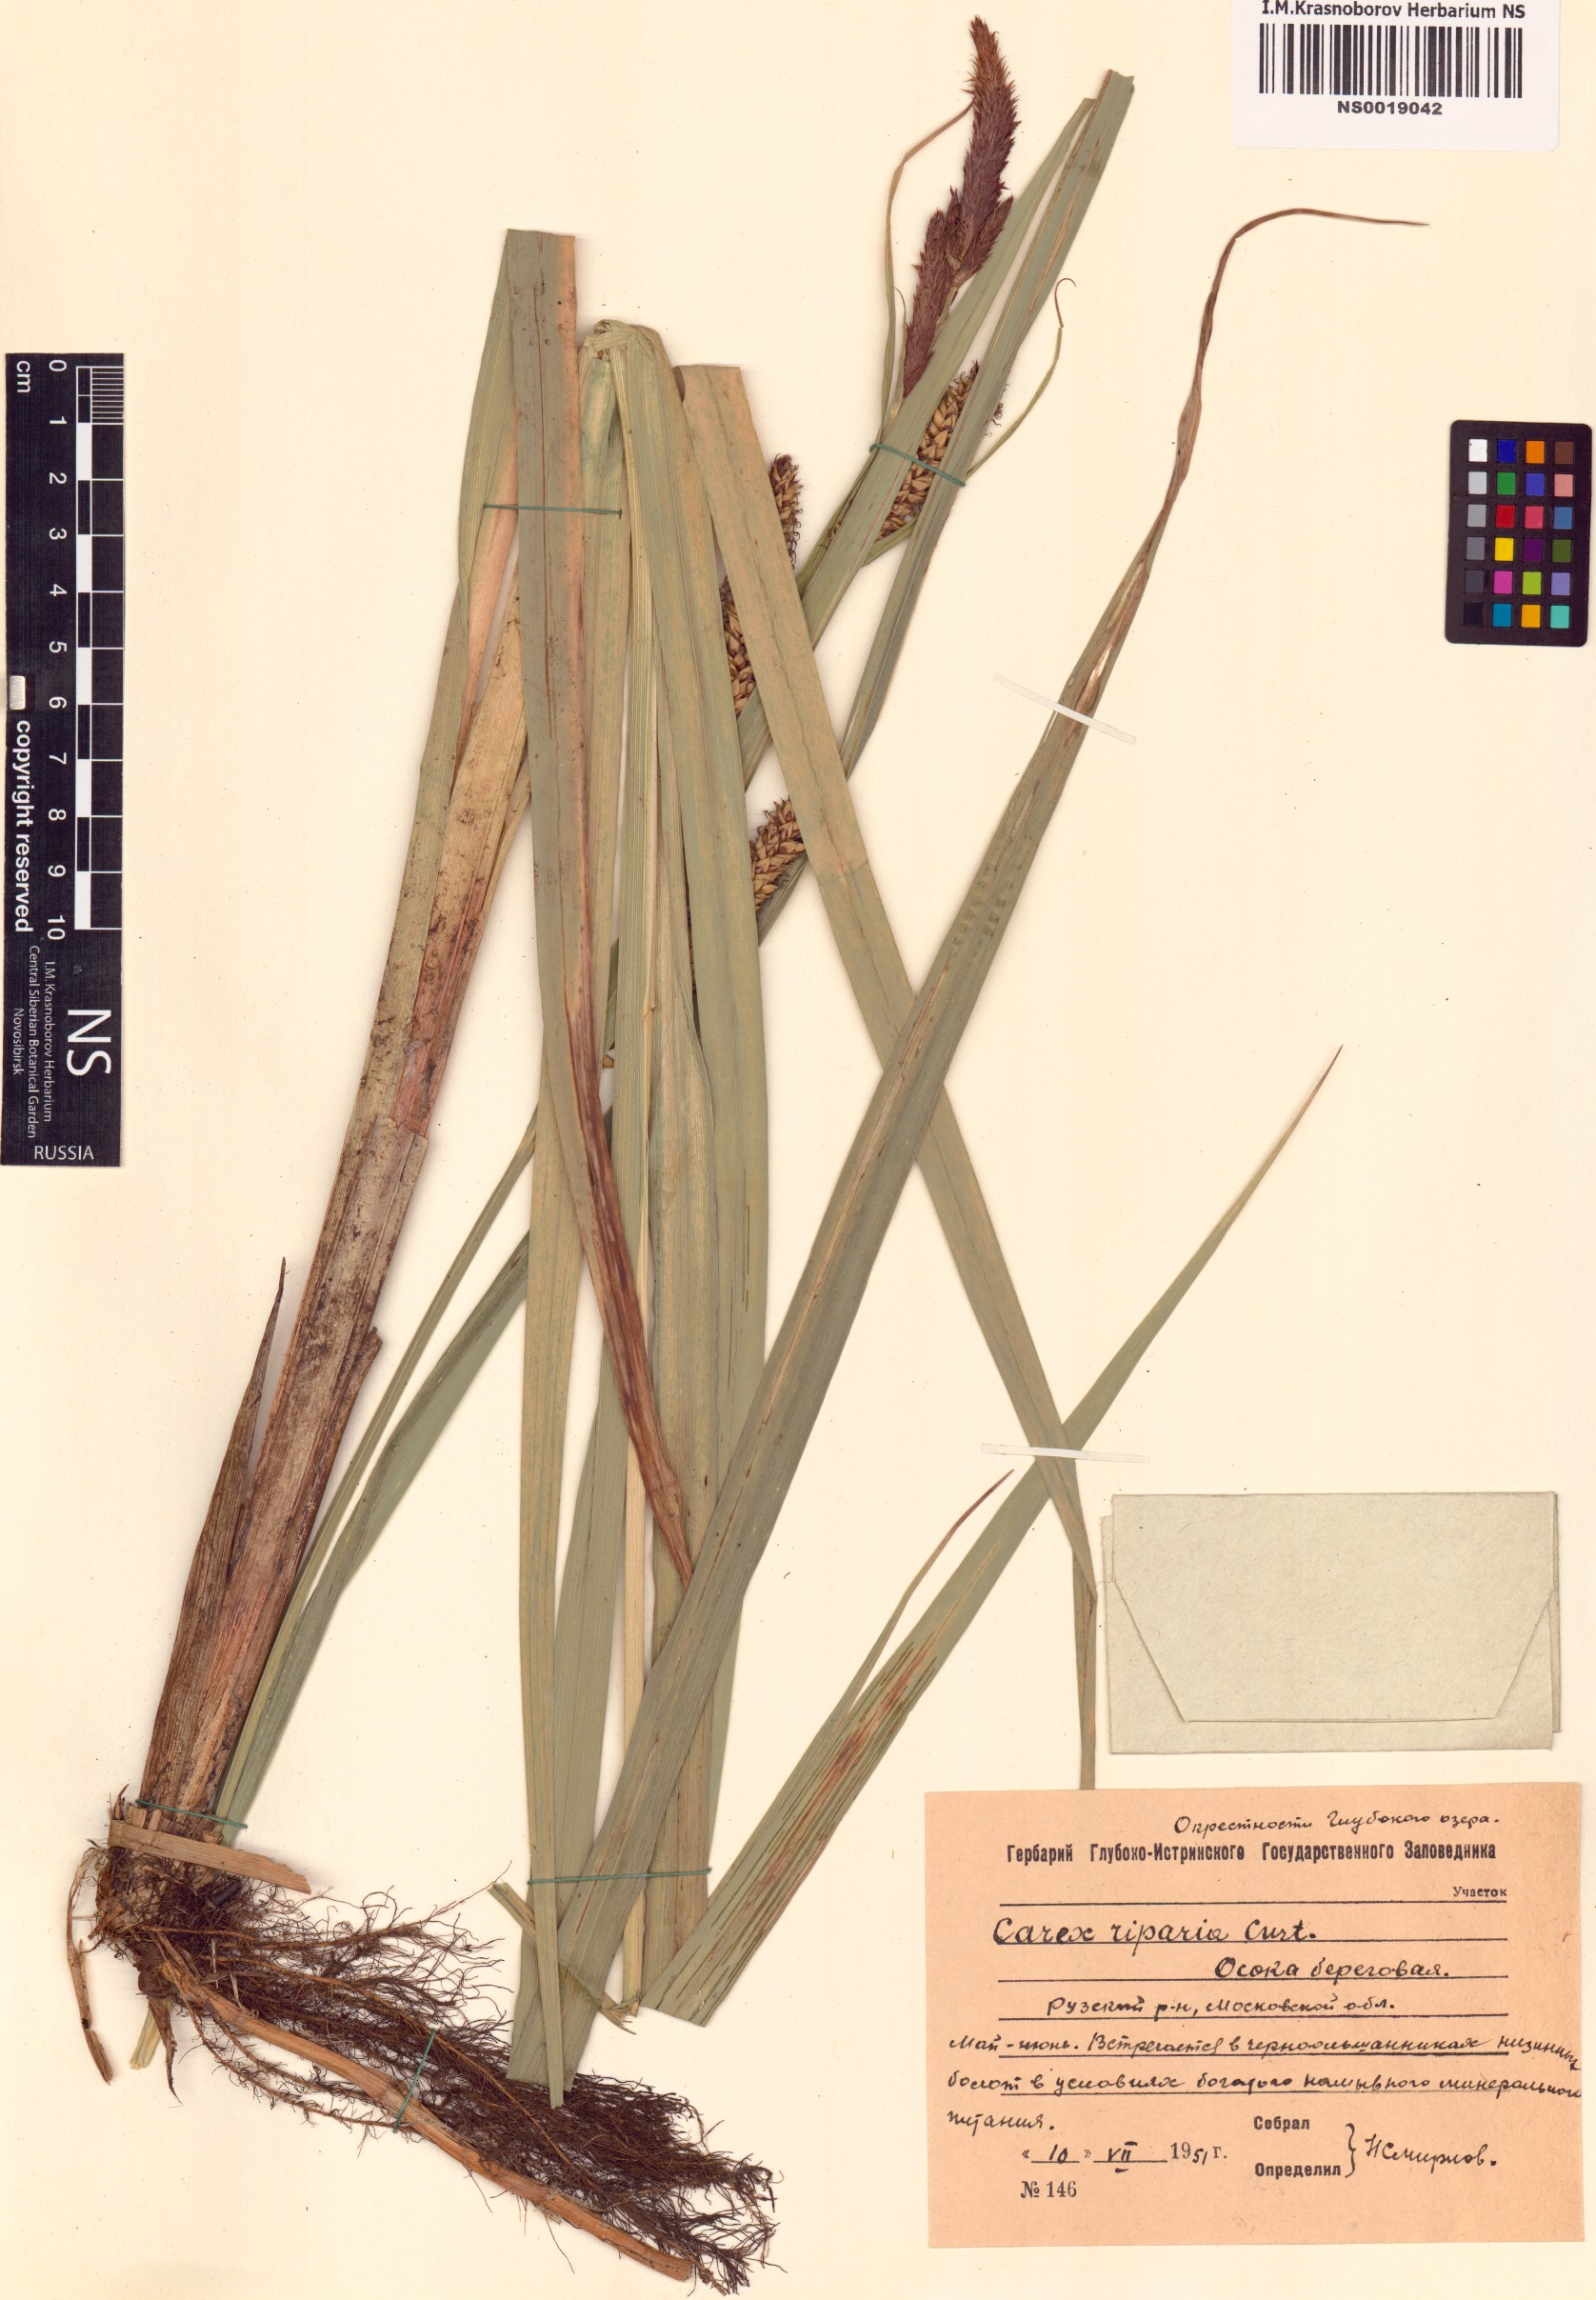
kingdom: Plantae
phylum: Tracheophyta
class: Liliopsida
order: Poales
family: Cyperaceae
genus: Carex
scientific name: Carex riparia
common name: Greater pond-sedge
